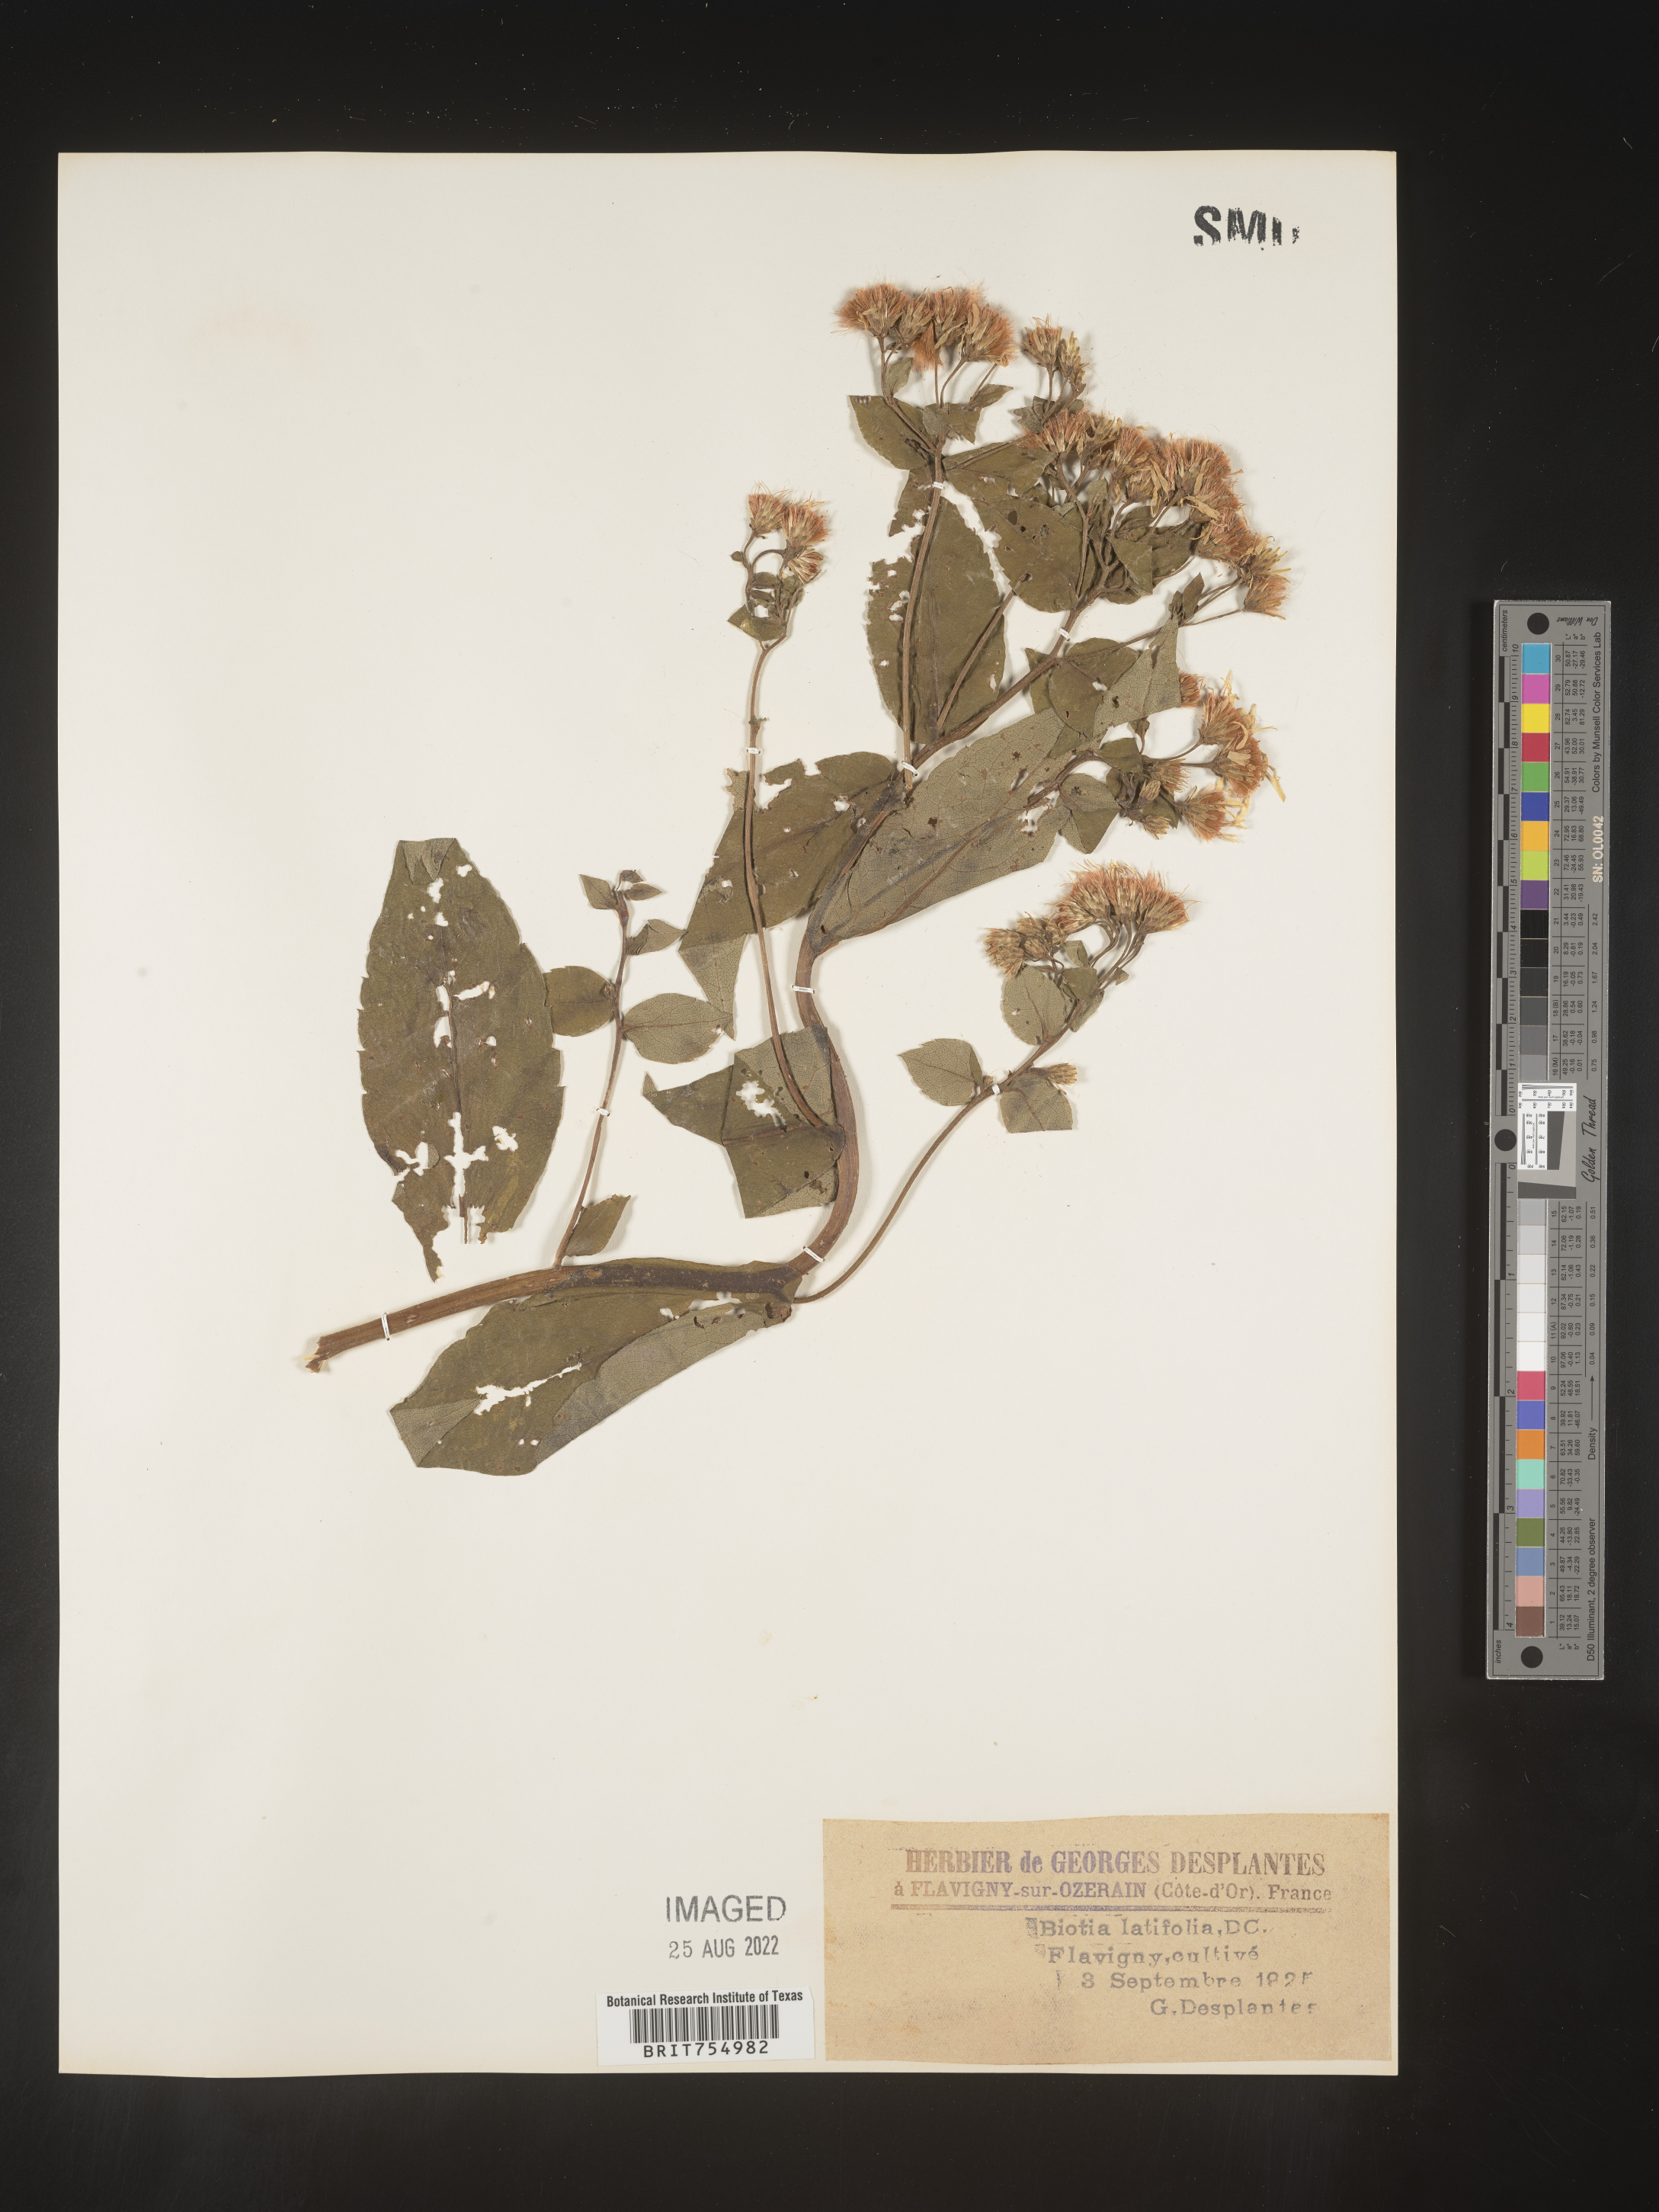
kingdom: Plantae
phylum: Tracheophyta
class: Magnoliopsida
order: Asterales
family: Asteraceae
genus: Symphyotrichum
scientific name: Symphyotrichum
